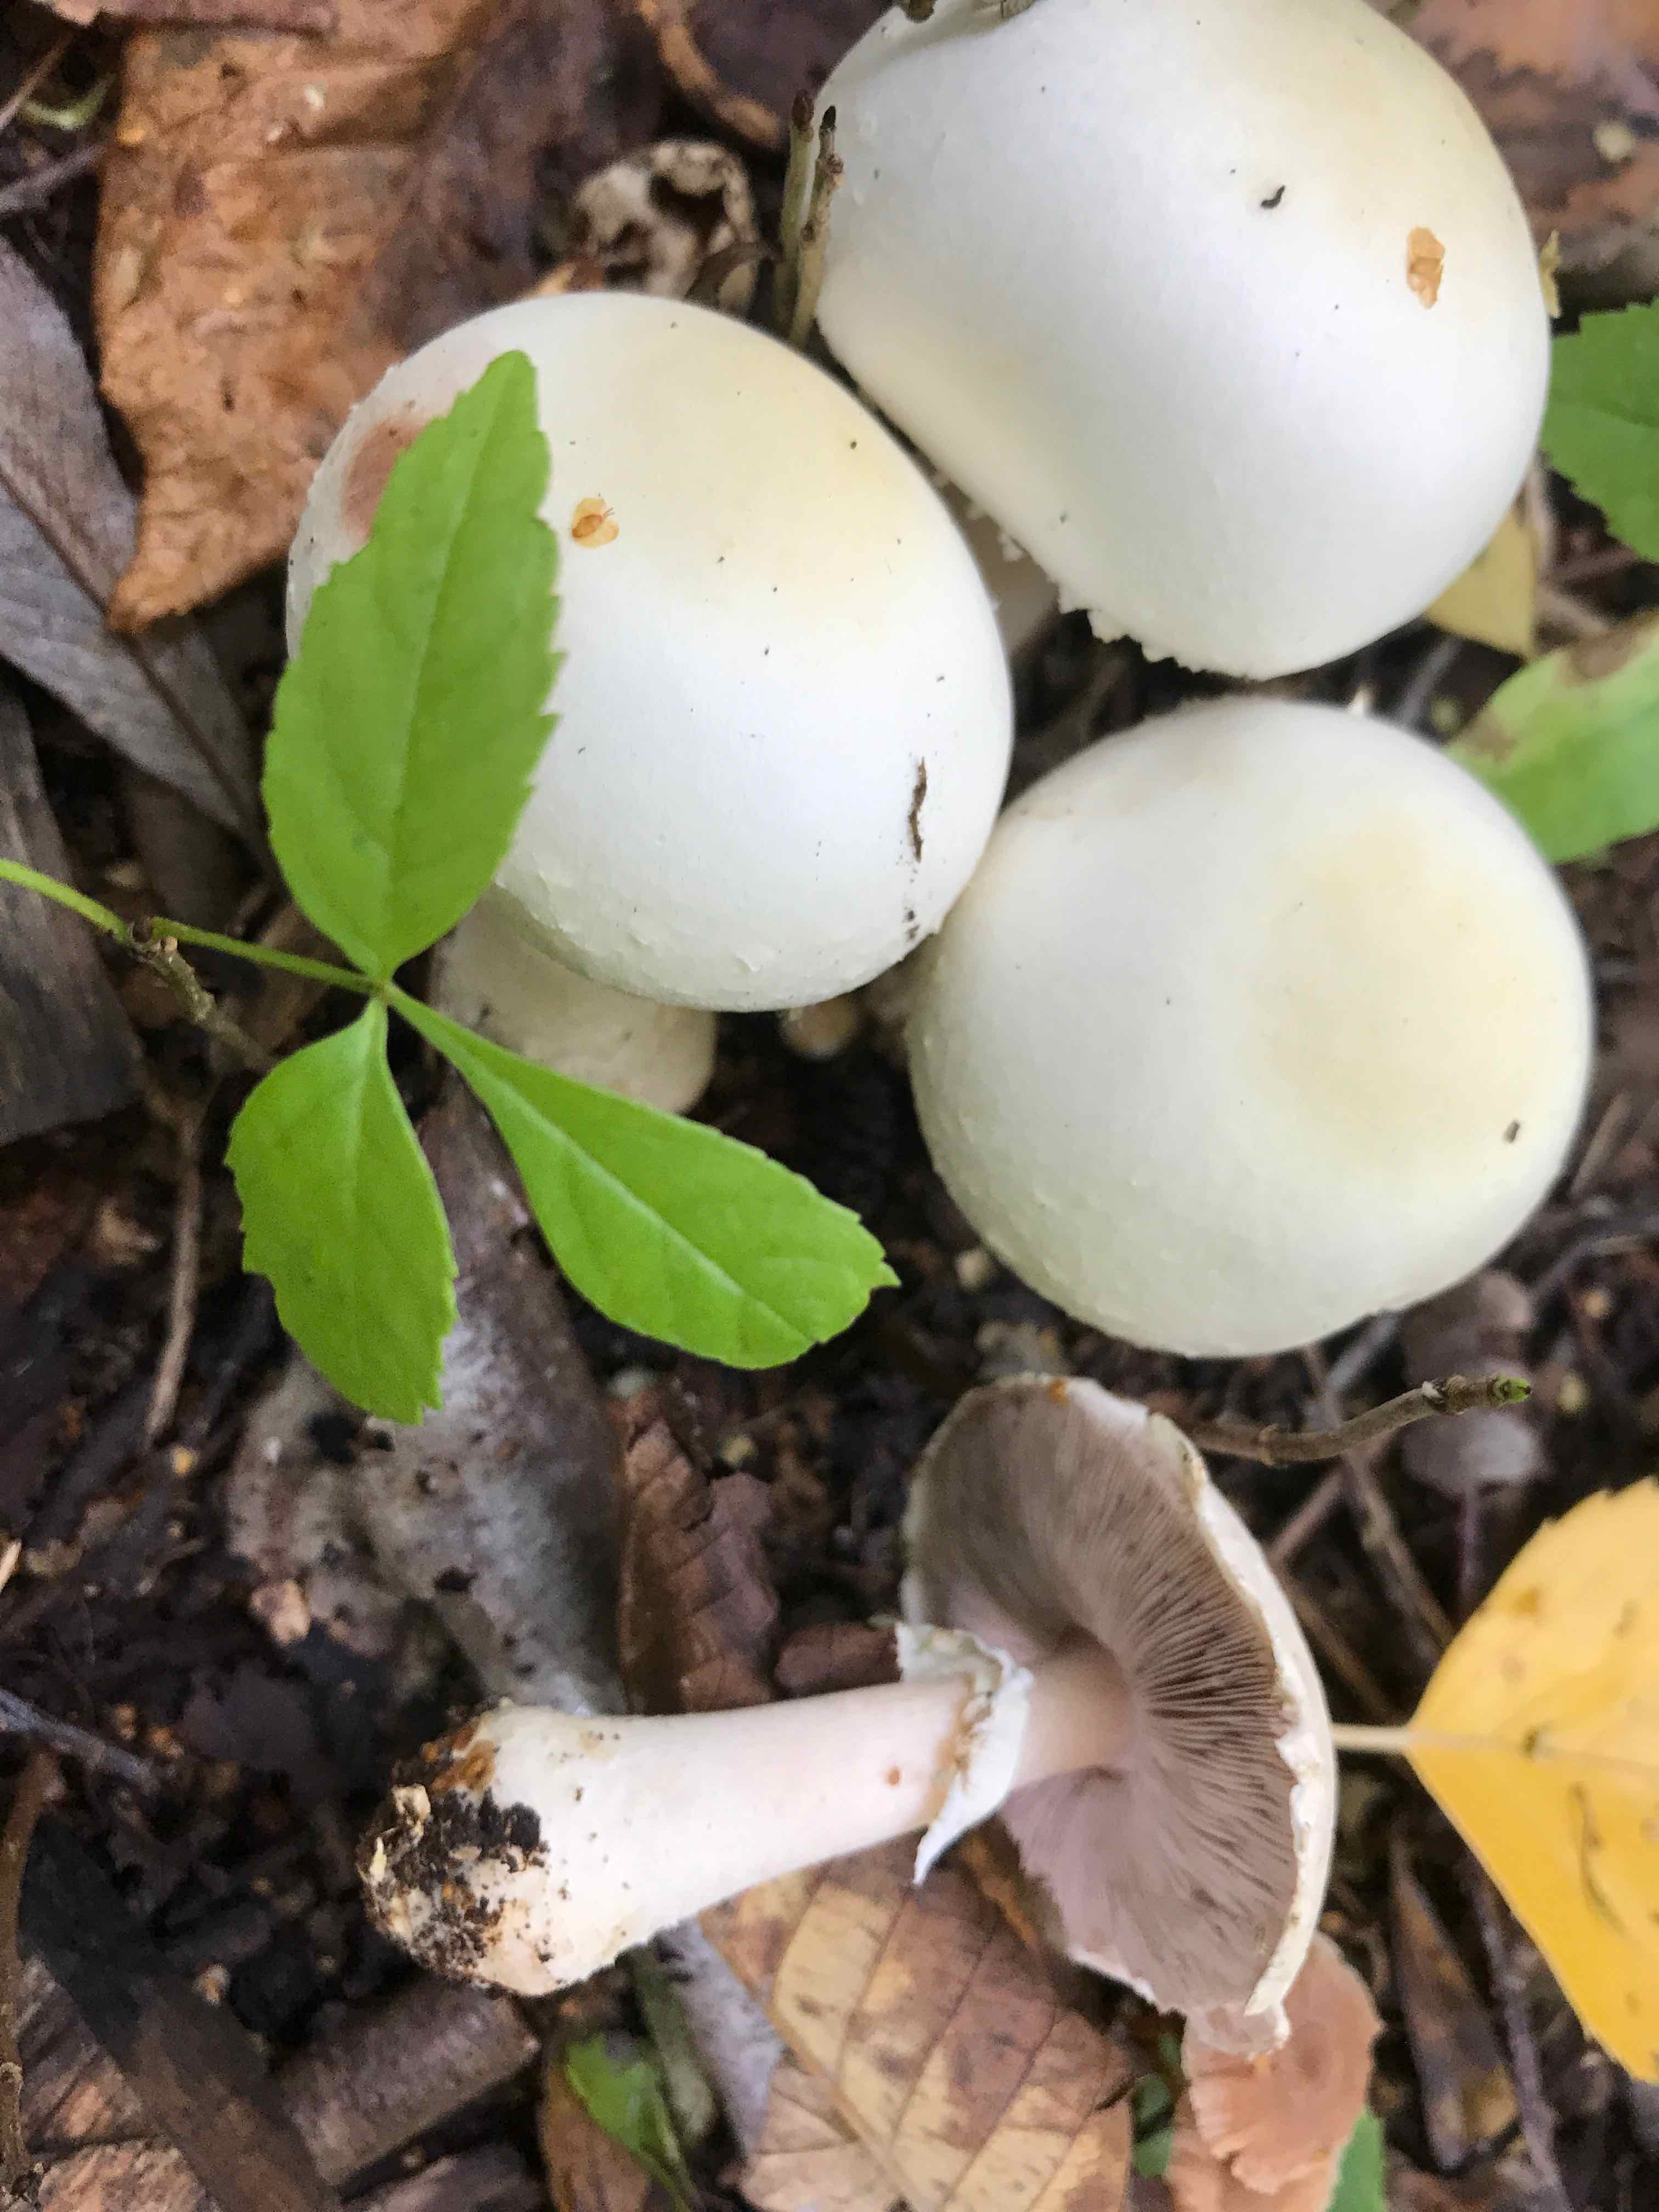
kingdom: Fungi
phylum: Basidiomycota
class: Agaricomycetes
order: Agaricales
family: Agaricaceae
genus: Agaricus
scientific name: Agaricus arvensis
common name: ager-champignon
